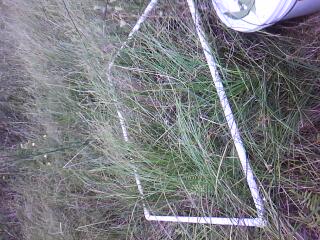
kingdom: Plantae
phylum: Tracheophyta
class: Liliopsida
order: Poales
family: Cyperaceae
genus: Schoenoplectus
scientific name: Schoenoplectus acutus
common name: Hardstem bulrush
